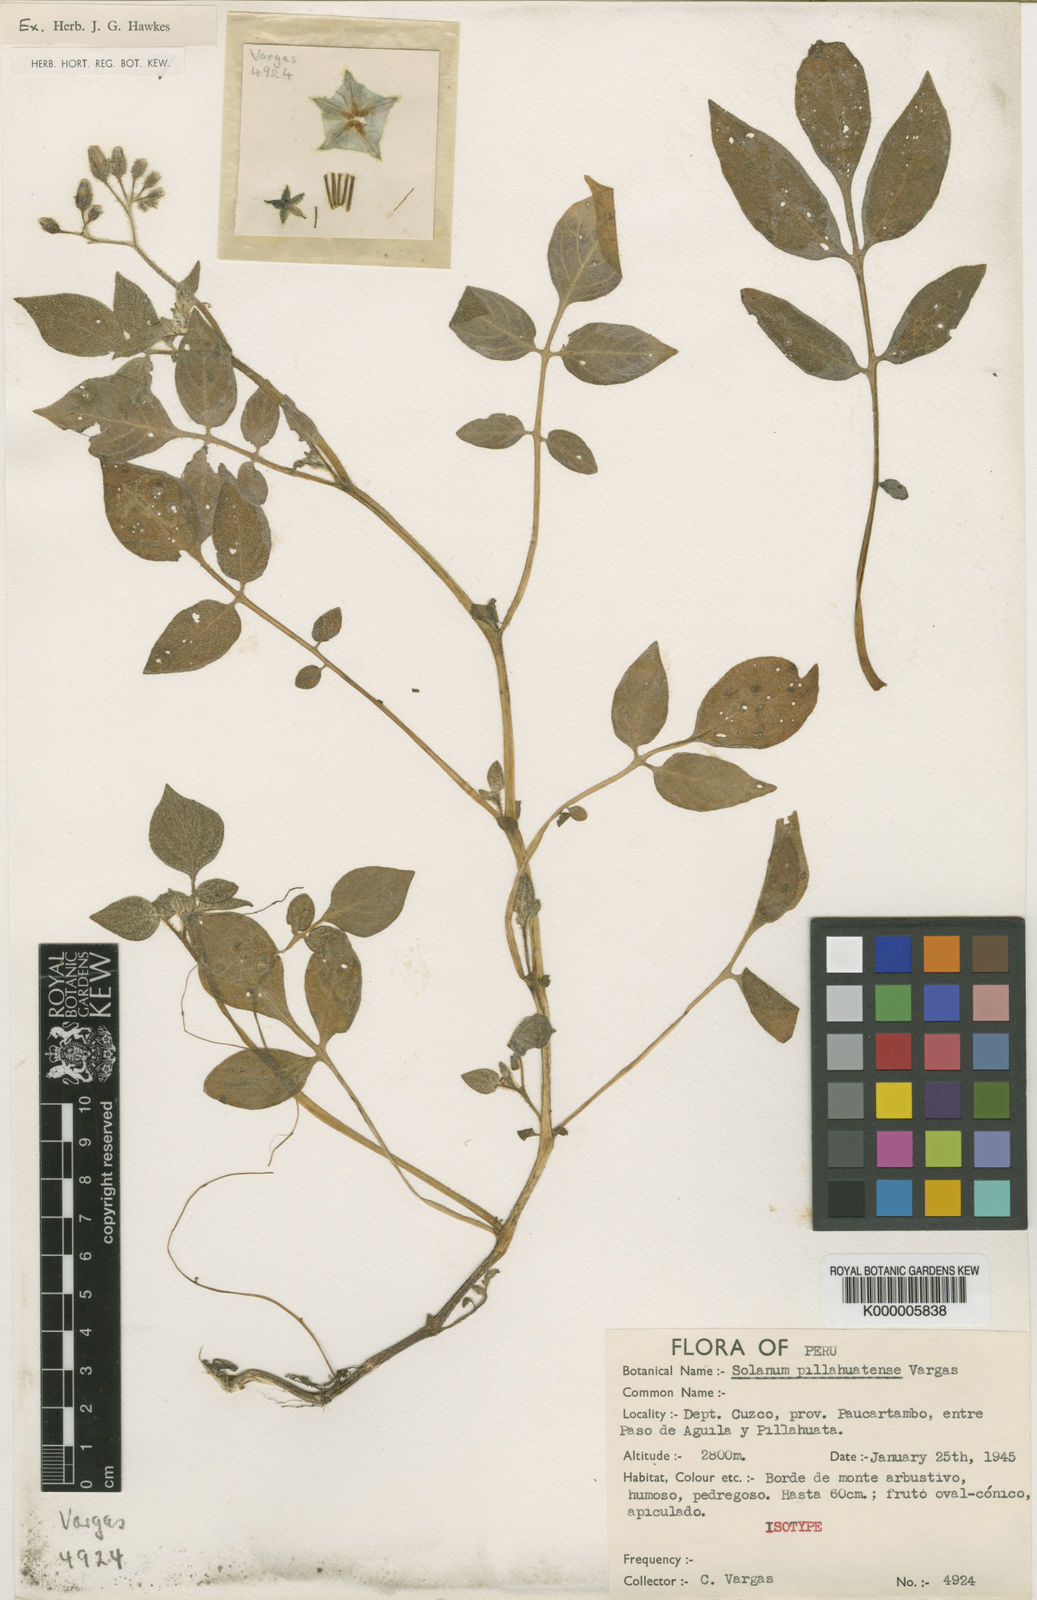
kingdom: Plantae
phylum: Tracheophyta
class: Magnoliopsida
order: Solanales
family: Solanaceae
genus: Solanum
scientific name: Solanum pillahuatense
